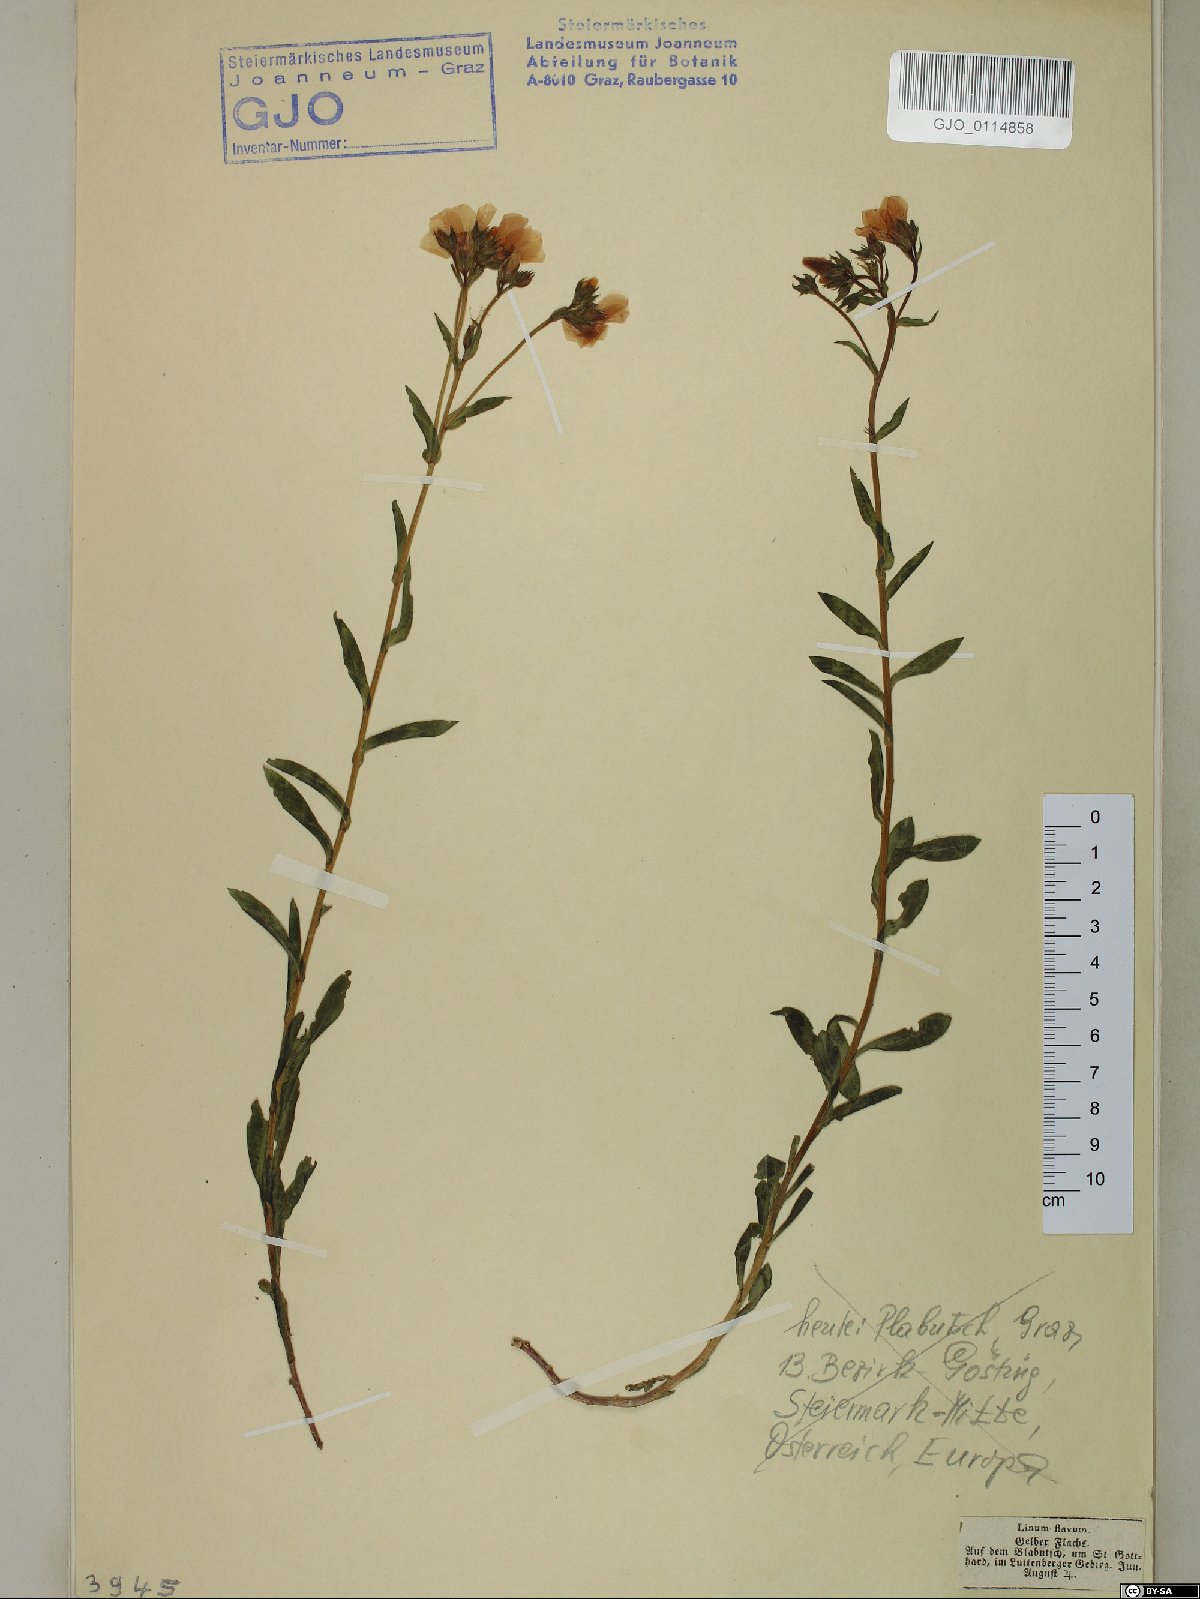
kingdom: Plantae
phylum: Tracheophyta
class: Magnoliopsida
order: Malpighiales
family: Linaceae
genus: Linum
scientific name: Linum flavum
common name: Yellow flax
